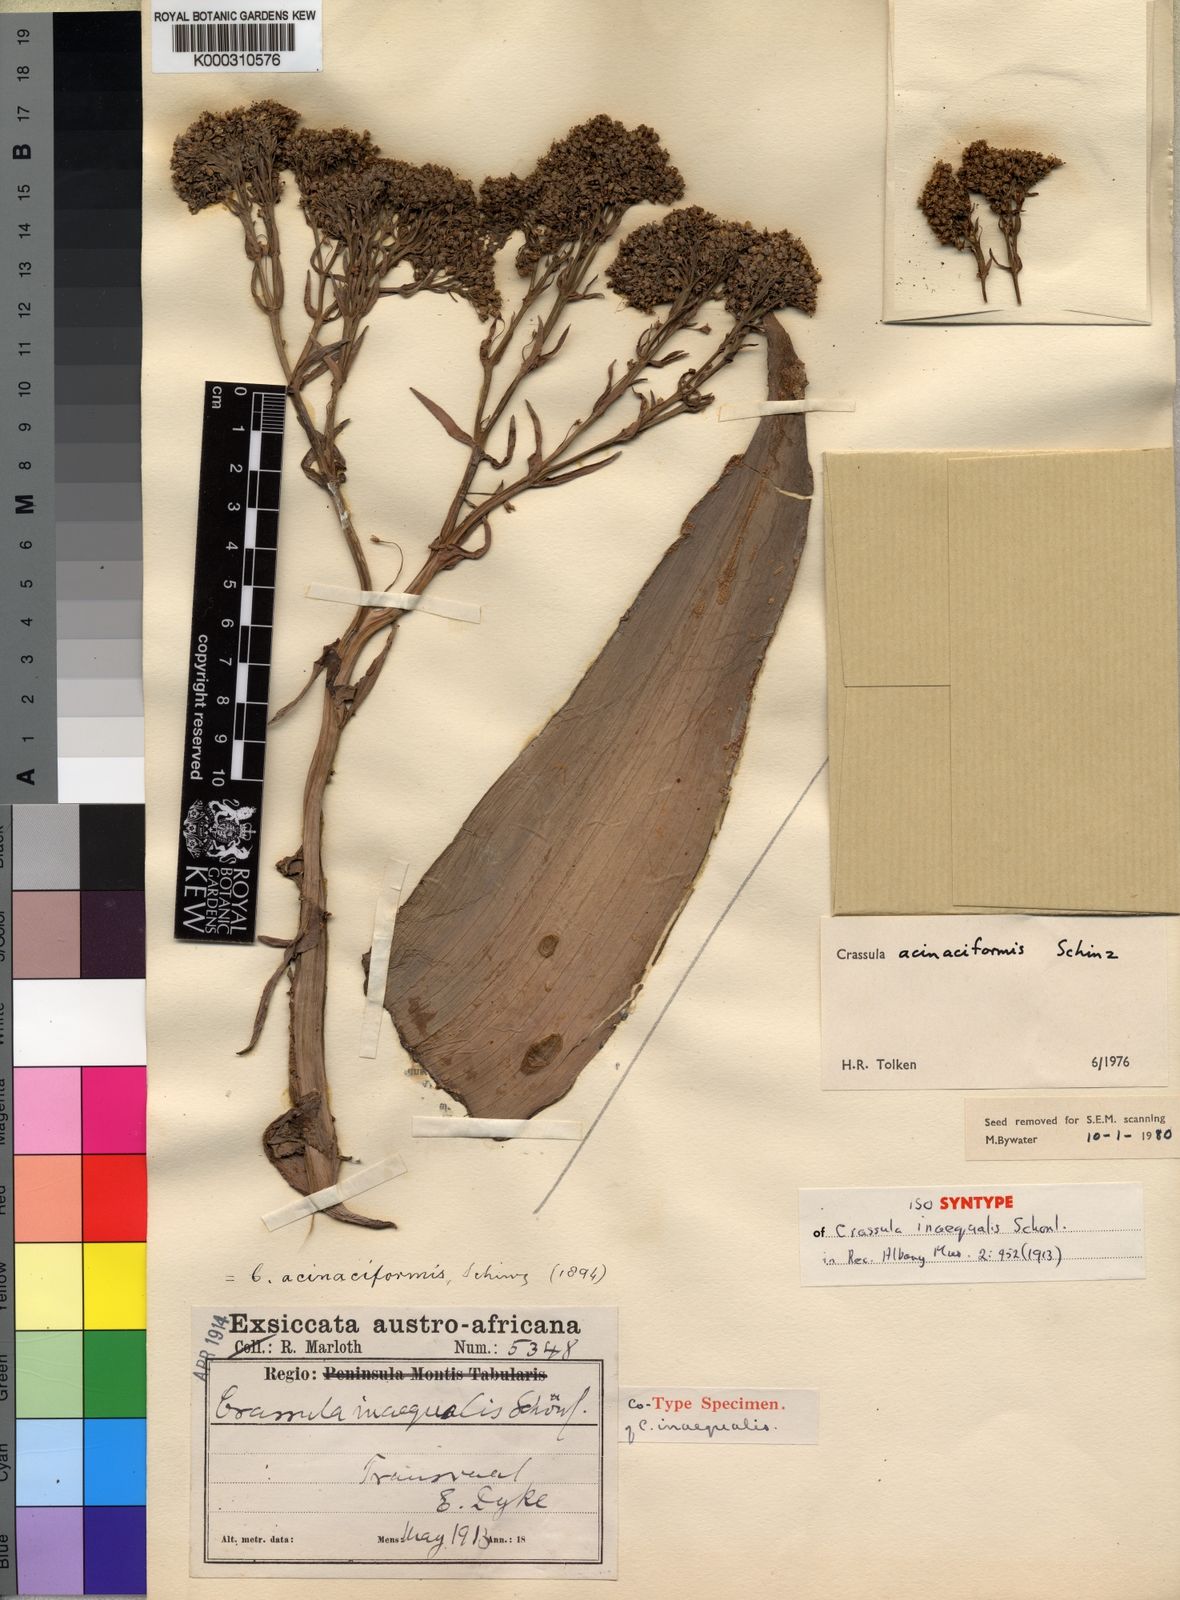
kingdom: Plantae
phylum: Tracheophyta
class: Magnoliopsida
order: Saxifragales
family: Crassulaceae
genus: Crassula
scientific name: Crassula acinaciformis
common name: Giant crassula
